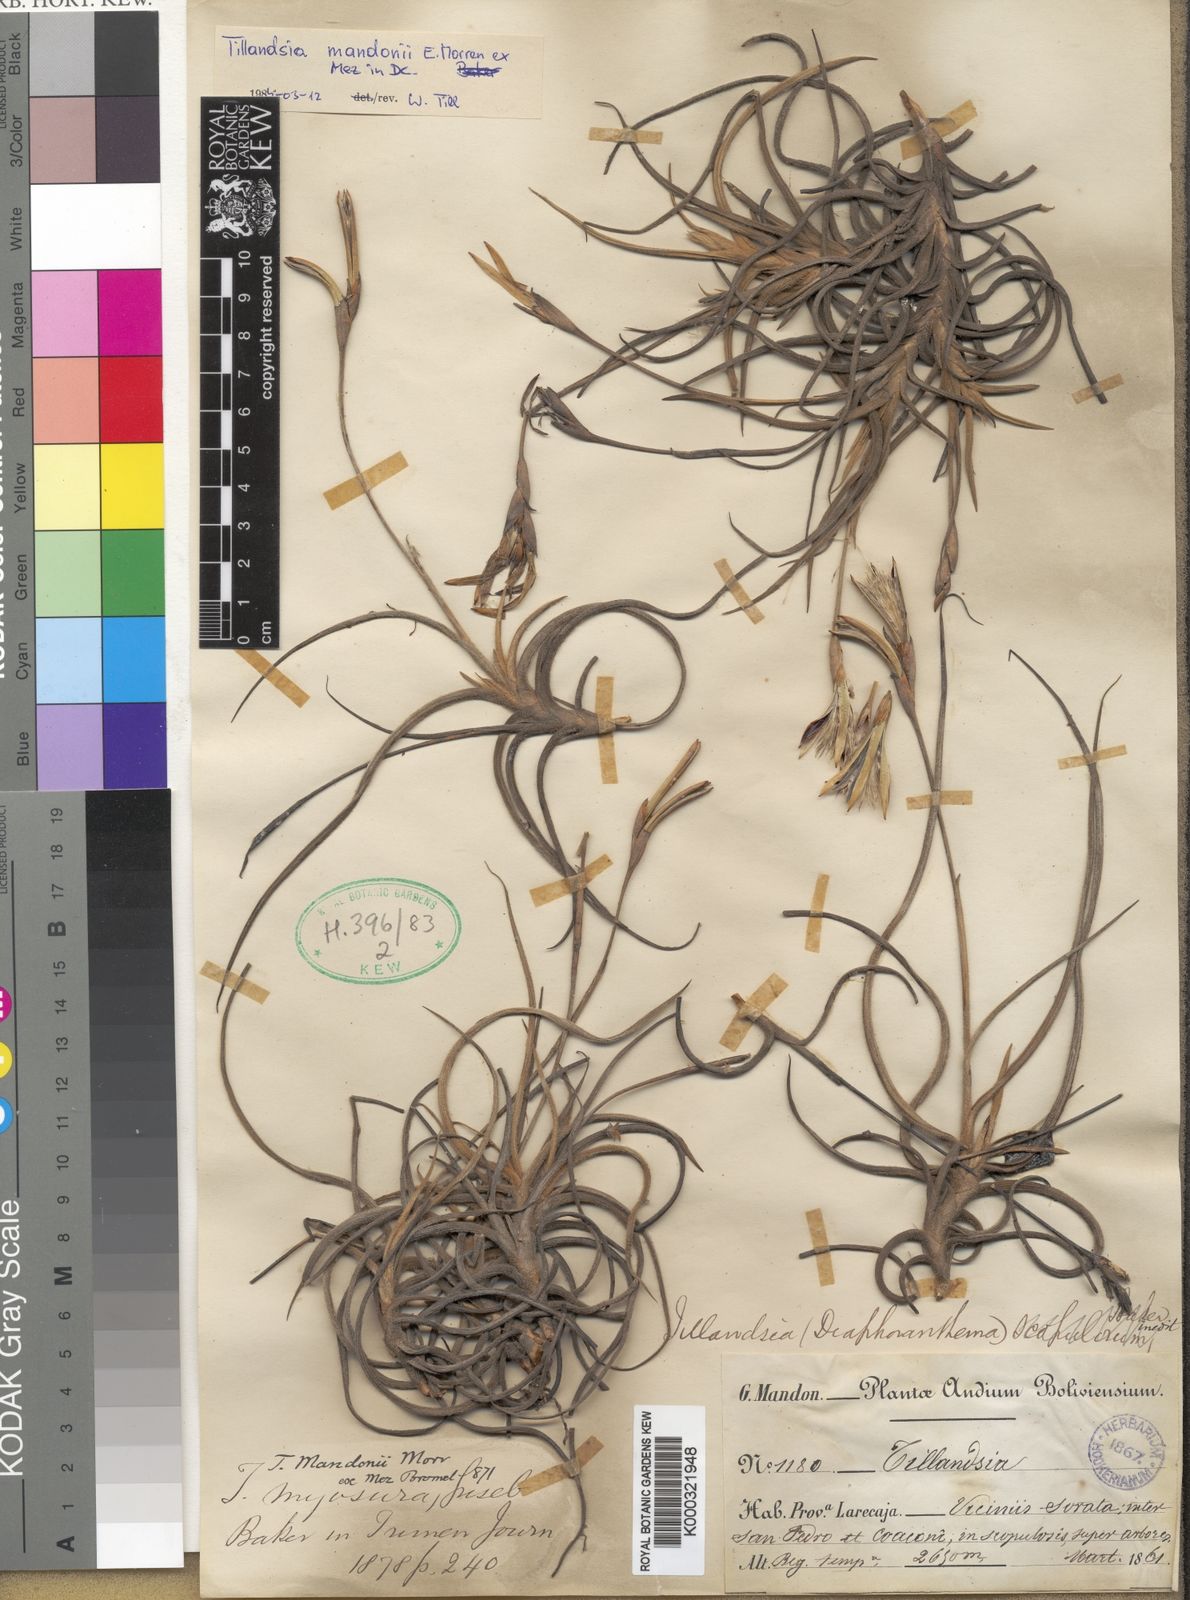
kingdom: Plantae
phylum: Tracheophyta
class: Liliopsida
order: Poales
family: Bromeliaceae
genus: Tillandsia
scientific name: Tillandsia
